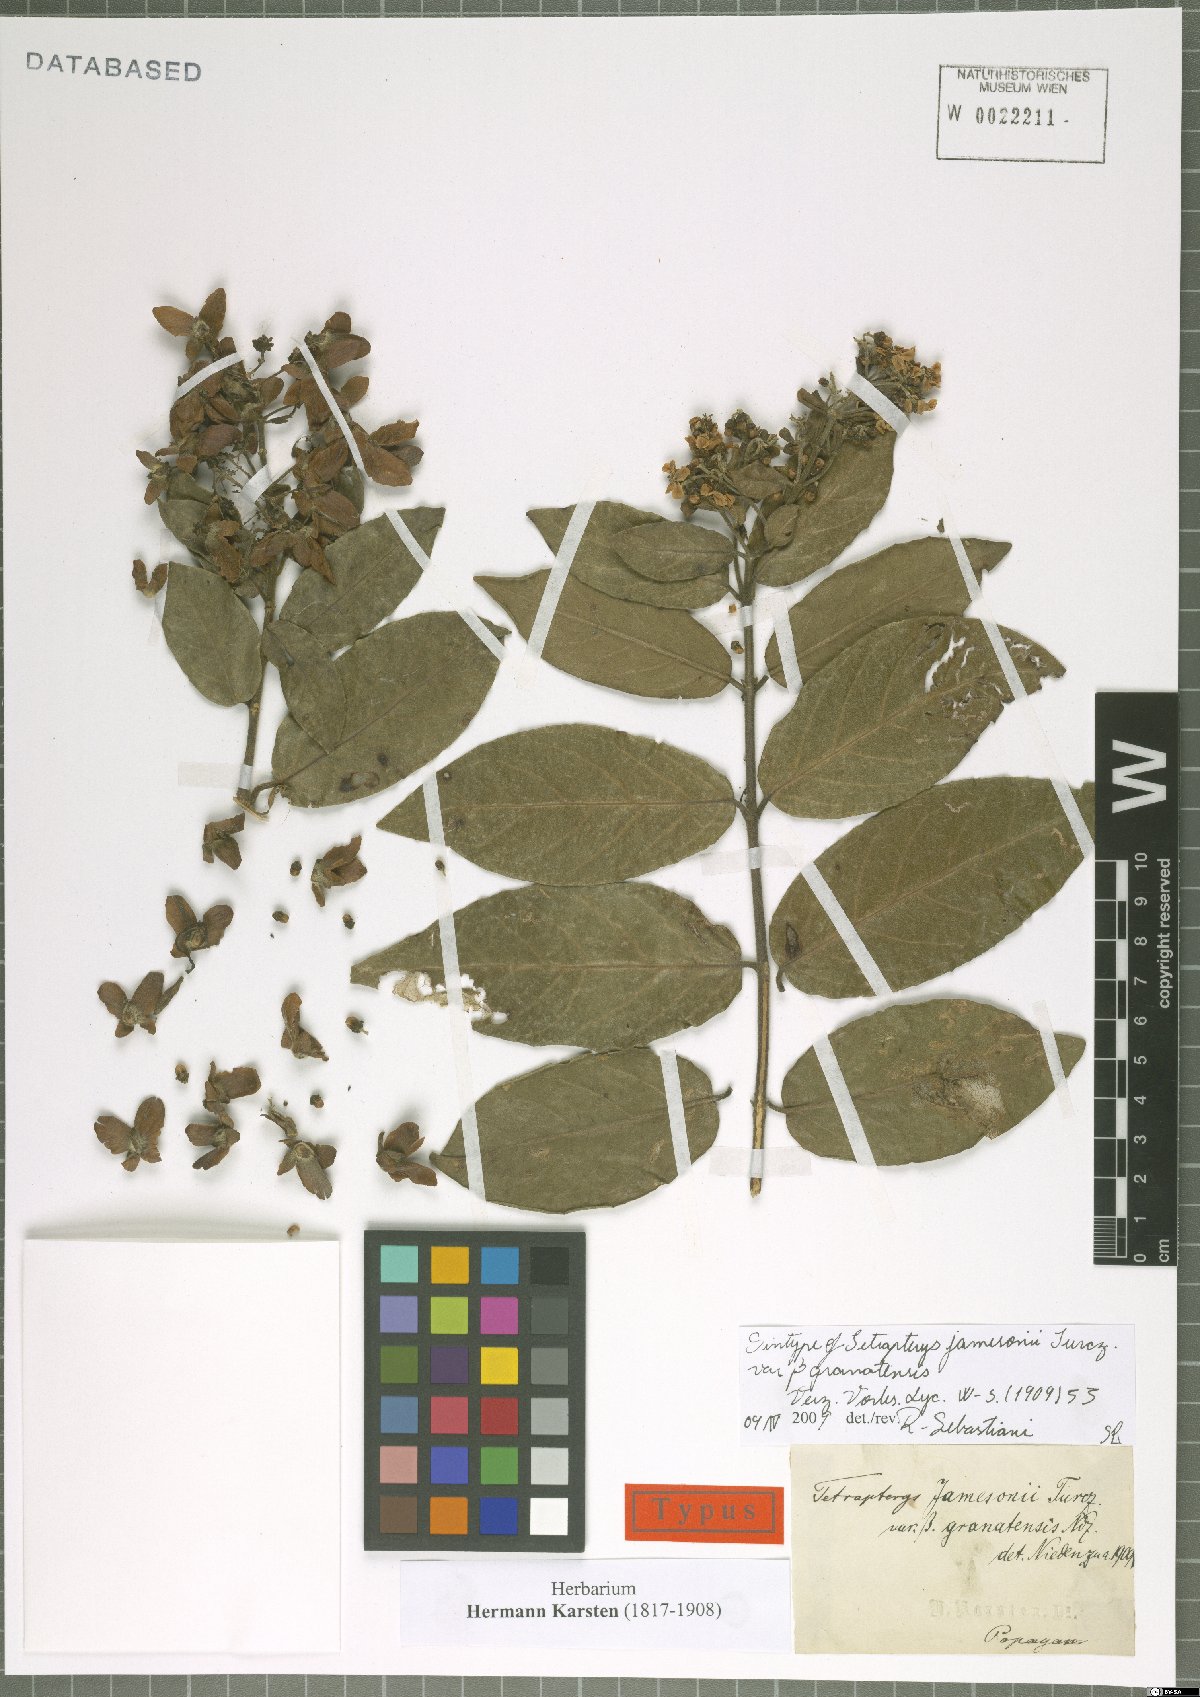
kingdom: Plantae
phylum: Tracheophyta
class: Magnoliopsida
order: Malpighiales
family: Malpighiaceae
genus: Tetrapterys
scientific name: Tetrapterys benthamii
